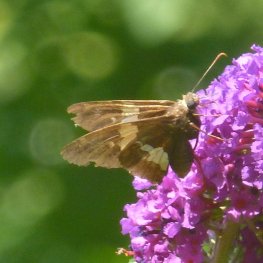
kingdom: Animalia
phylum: Arthropoda
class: Insecta
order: Lepidoptera
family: Hesperiidae
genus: Epargyreus
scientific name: Epargyreus clarus
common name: Silver-spotted Skipper
